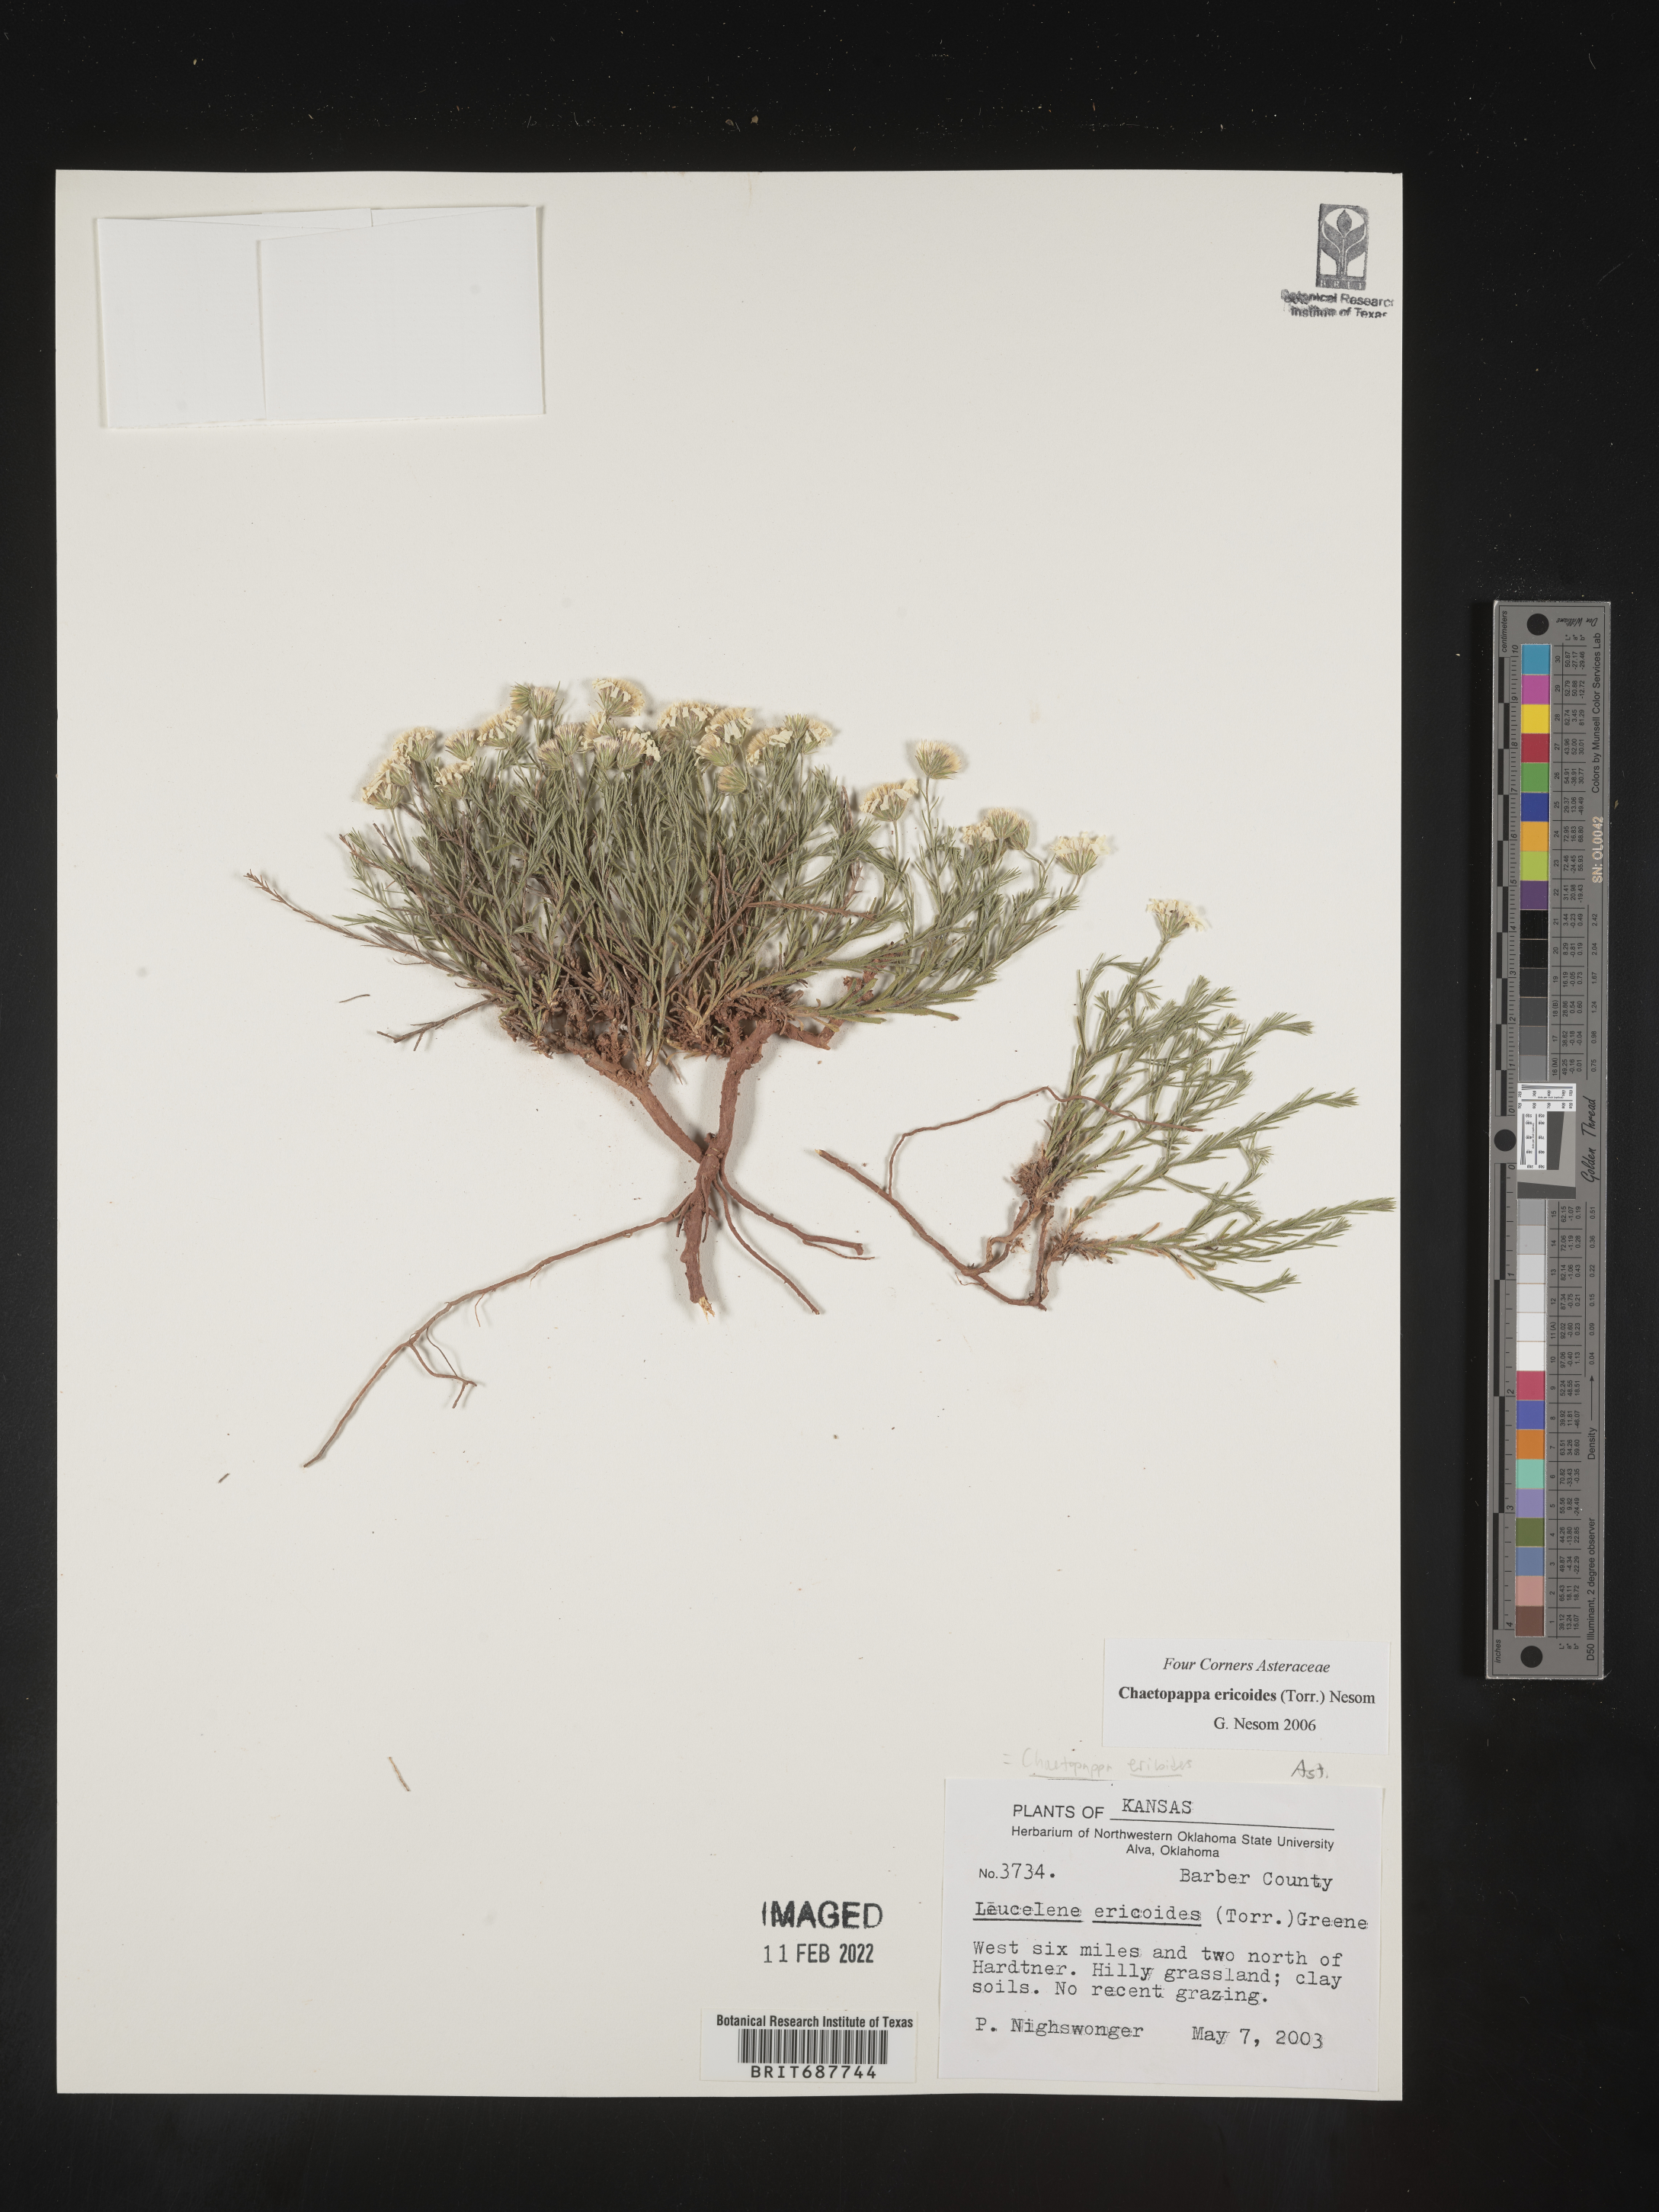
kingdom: Plantae
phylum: Tracheophyta
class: Magnoliopsida
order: Asterales
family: Asteraceae
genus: Chaetopappa
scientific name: Chaetopappa ericoides
